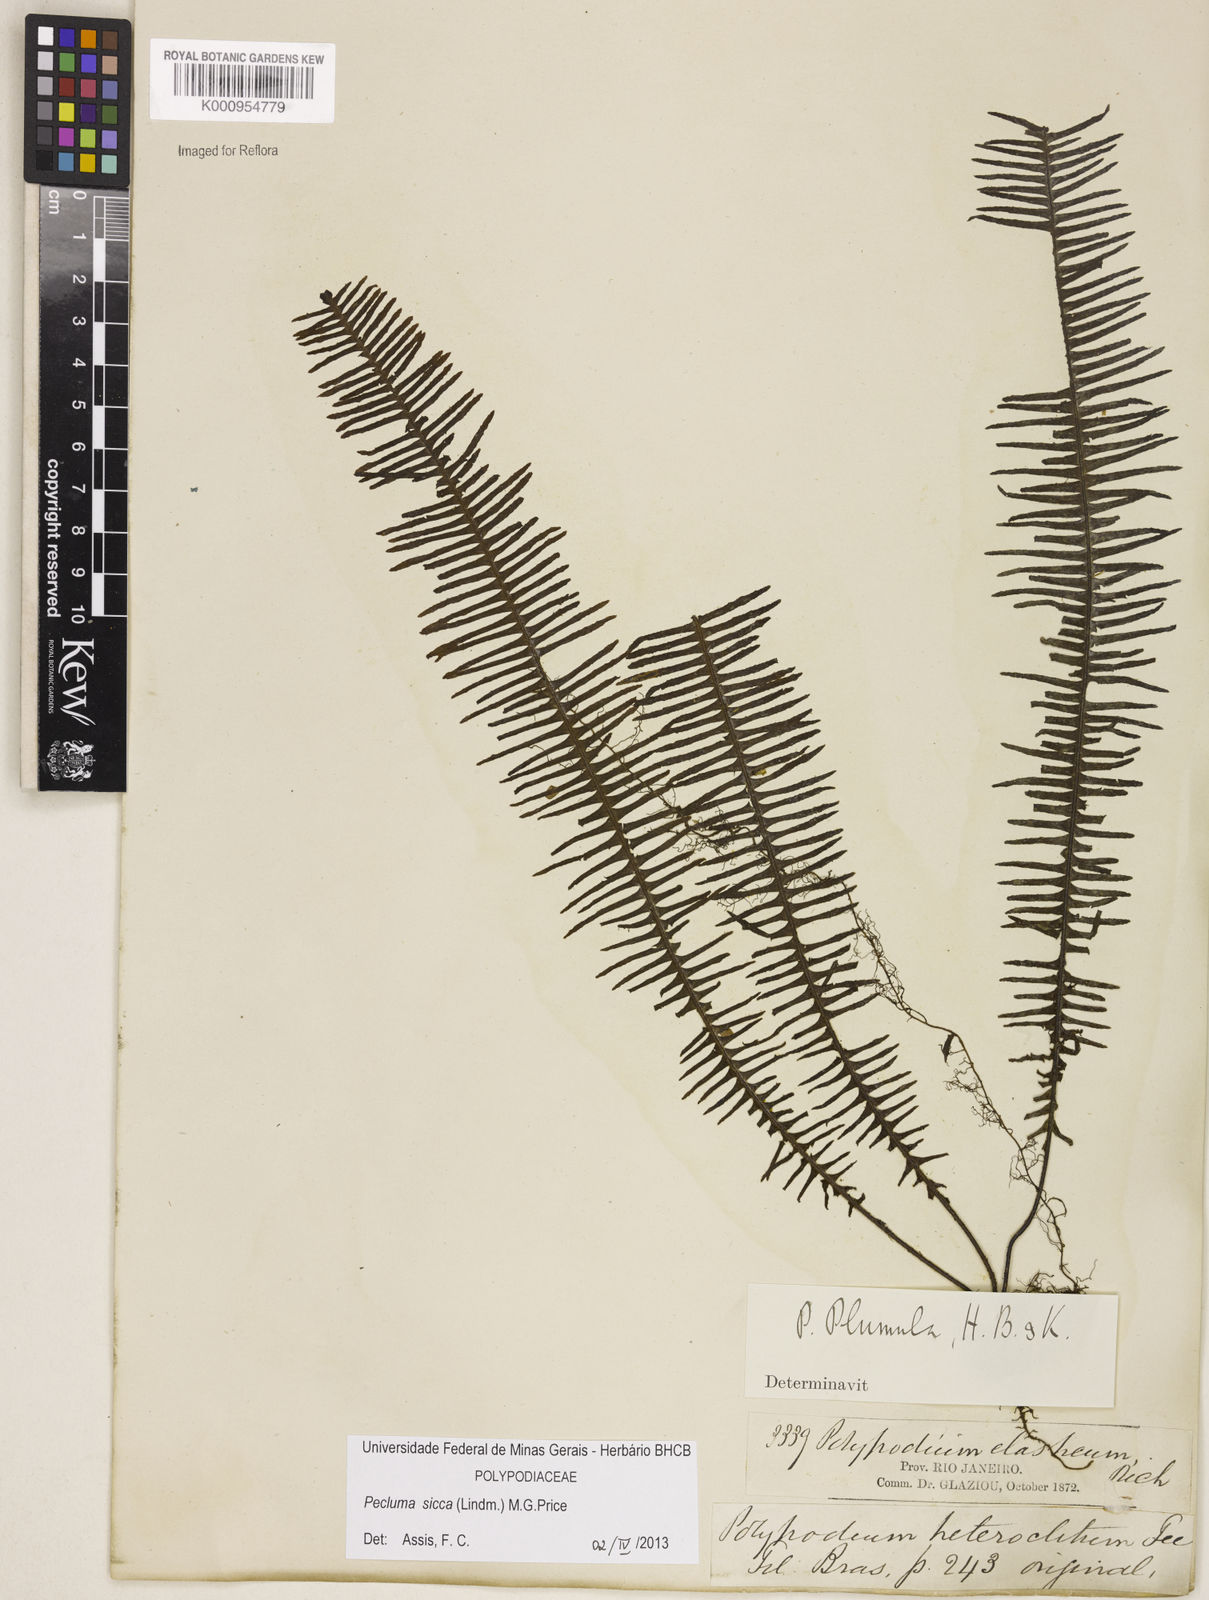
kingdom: Plantae
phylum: Tracheophyta
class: Polypodiopsida
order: Polypodiales
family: Polypodiaceae
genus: Pecluma
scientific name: Pecluma sicca
